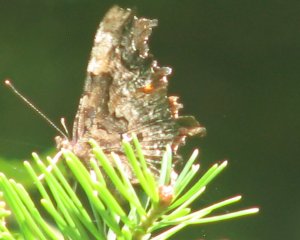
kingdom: Animalia
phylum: Arthropoda
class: Insecta
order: Lepidoptera
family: Nymphalidae
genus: Polygonia
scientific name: Polygonia faunus
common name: Green Comma
